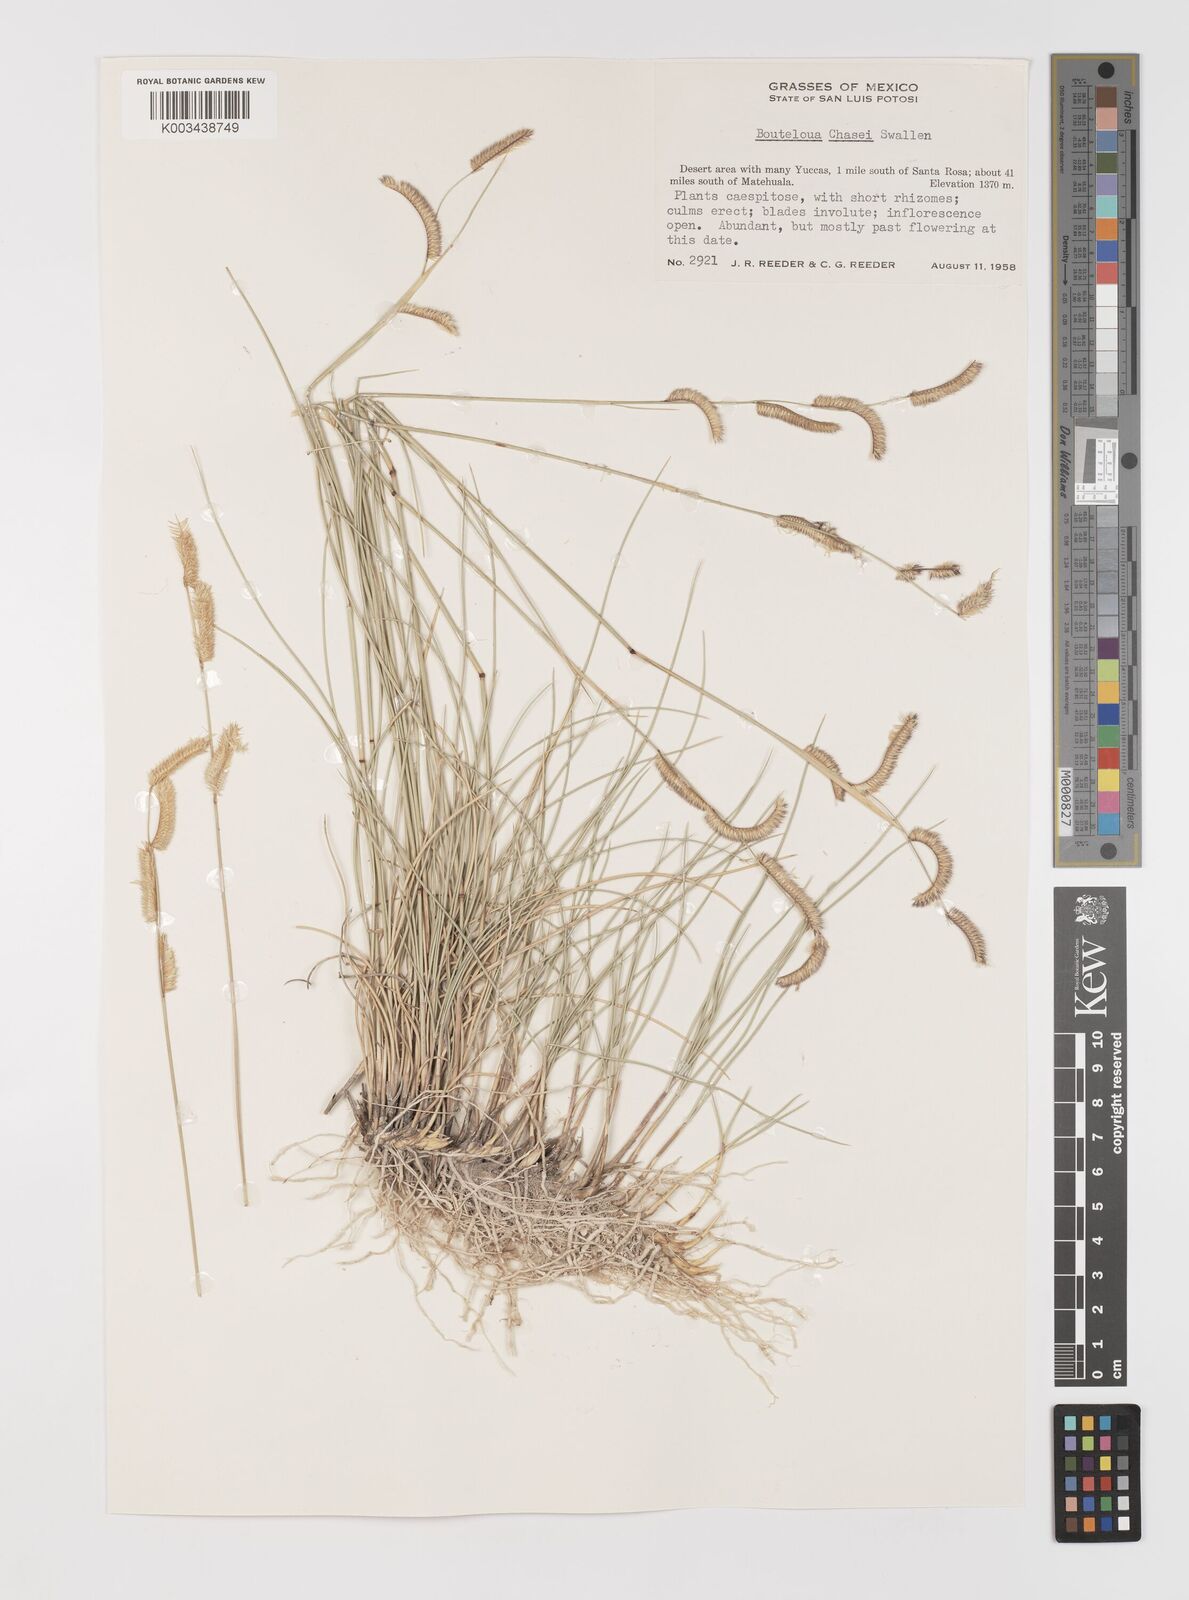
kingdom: Plantae
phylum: Tracheophyta
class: Liliopsida
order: Poales
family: Poaceae
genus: Bouteloua
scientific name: Bouteloua chasei
